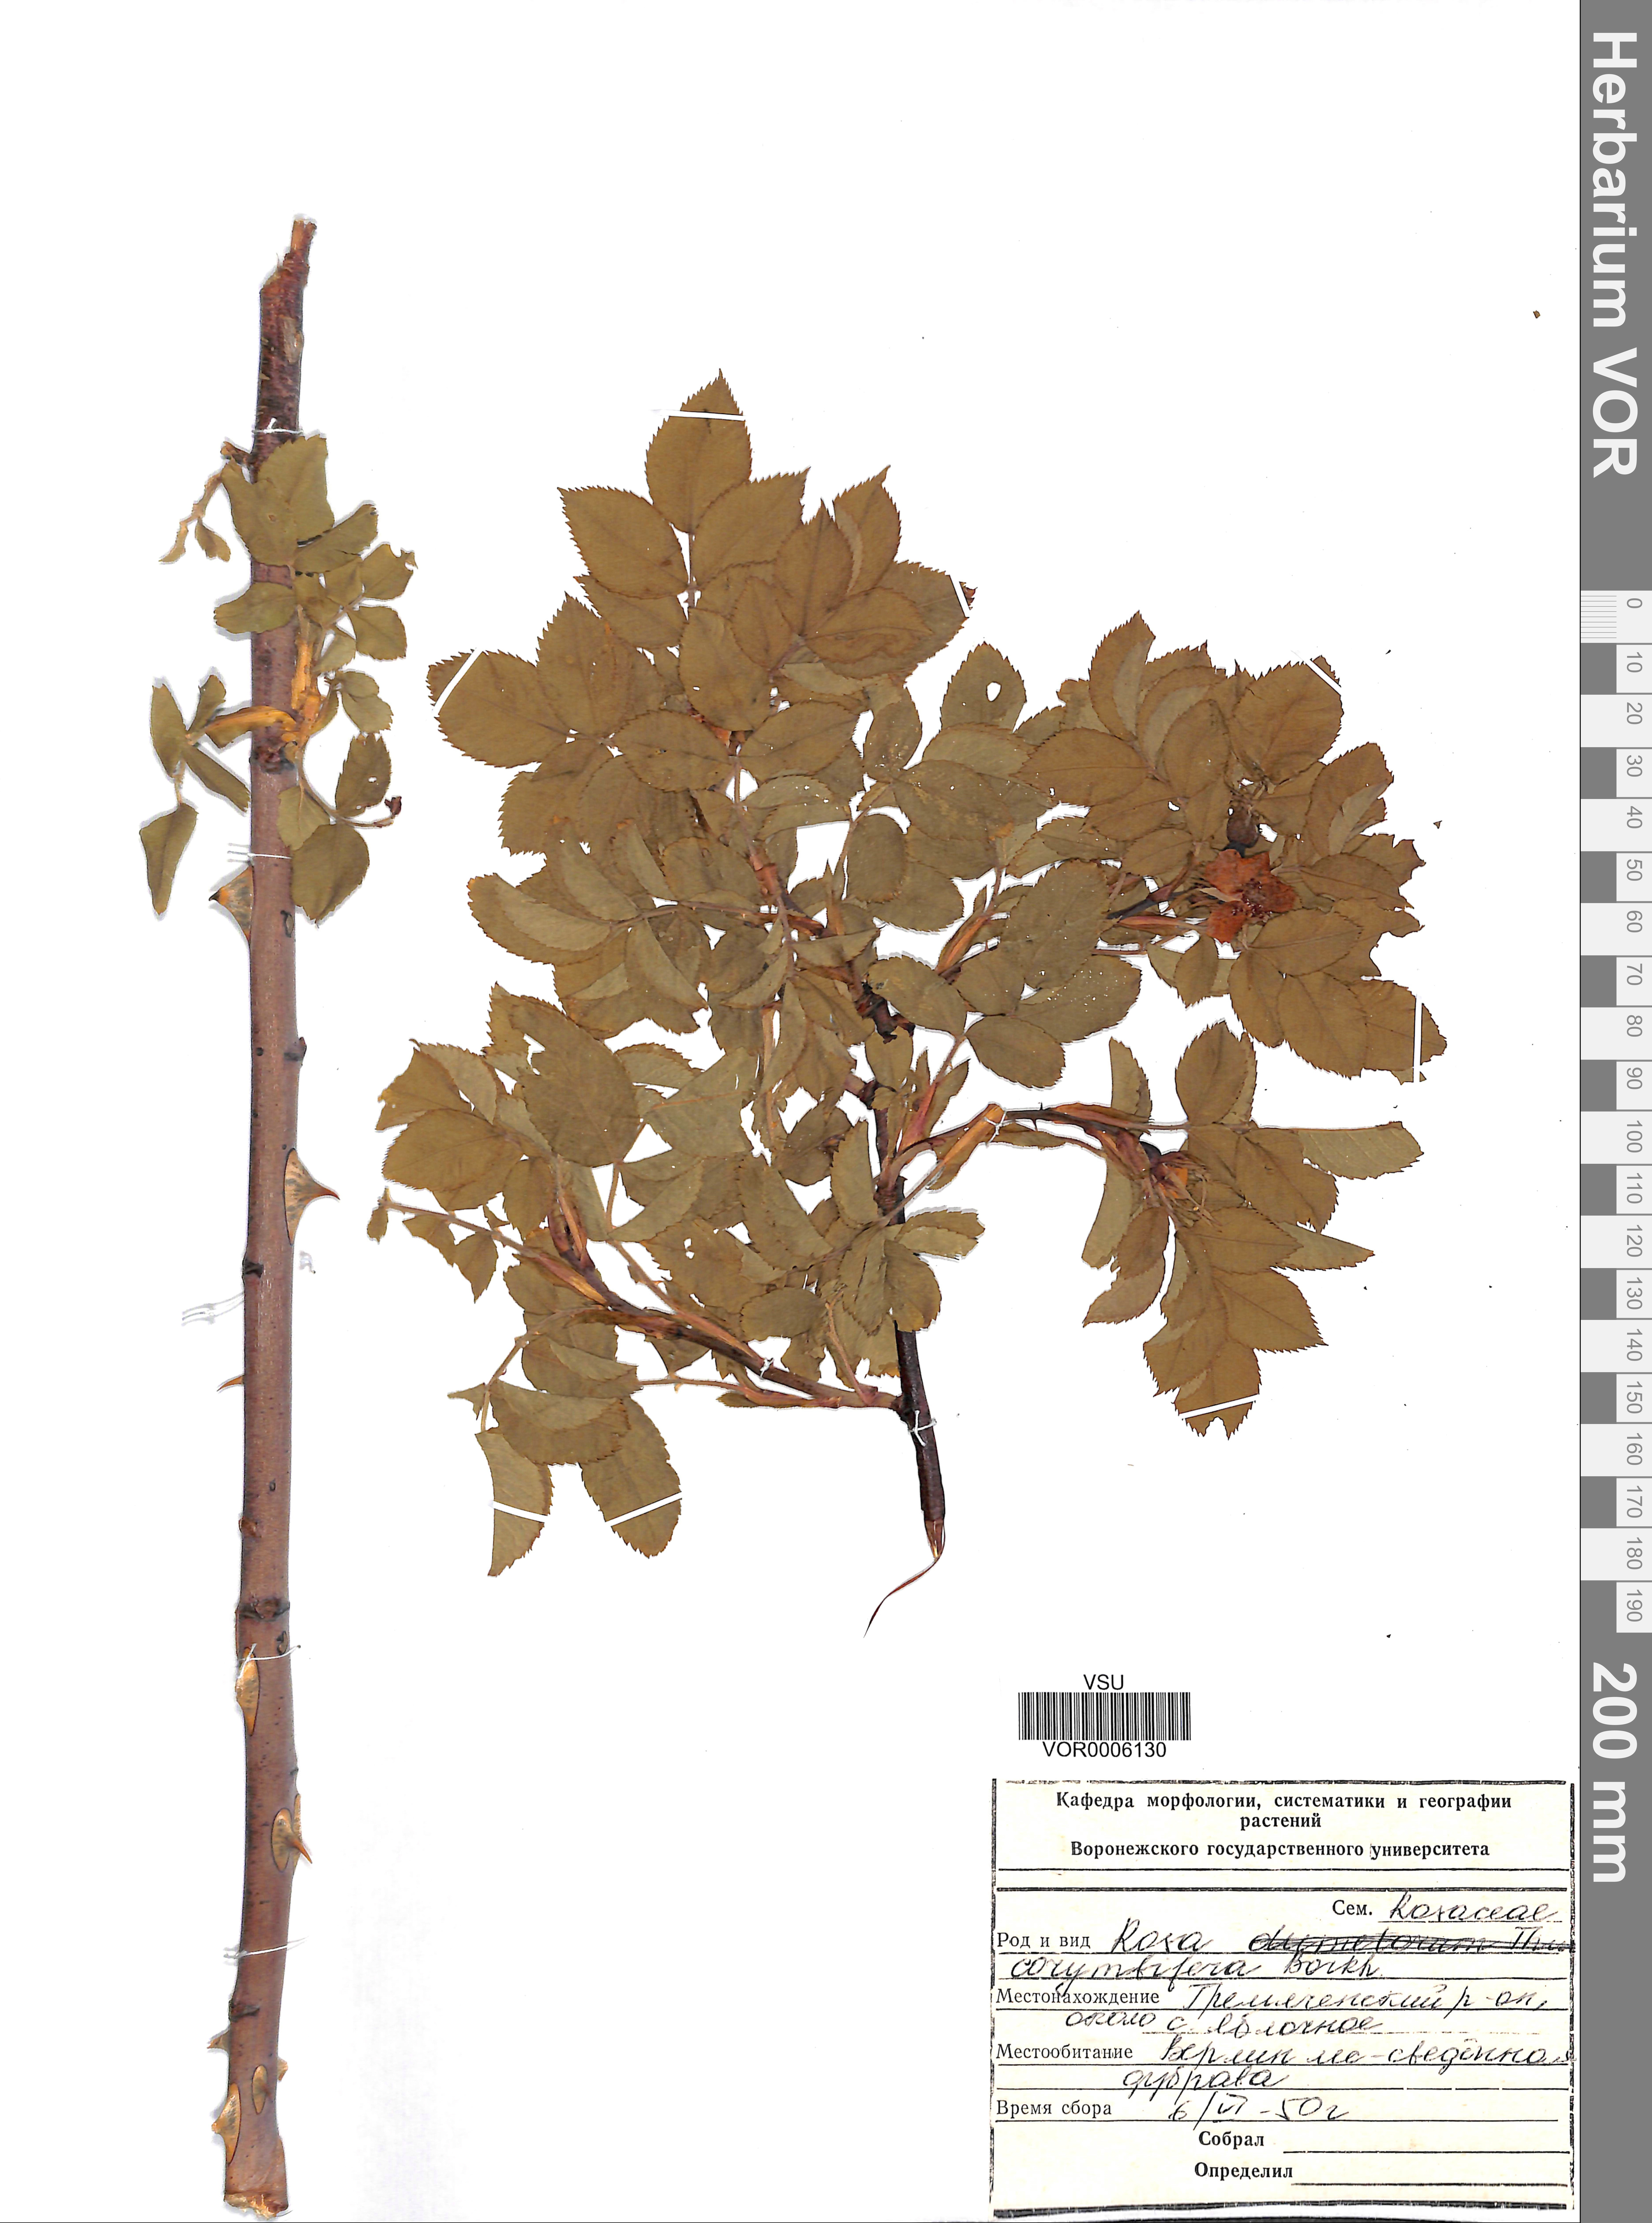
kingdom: Plantae
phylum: Tracheophyta
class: Magnoliopsida
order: Rosales
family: Rosaceae
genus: Rosa
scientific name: Rosa corymbifera
